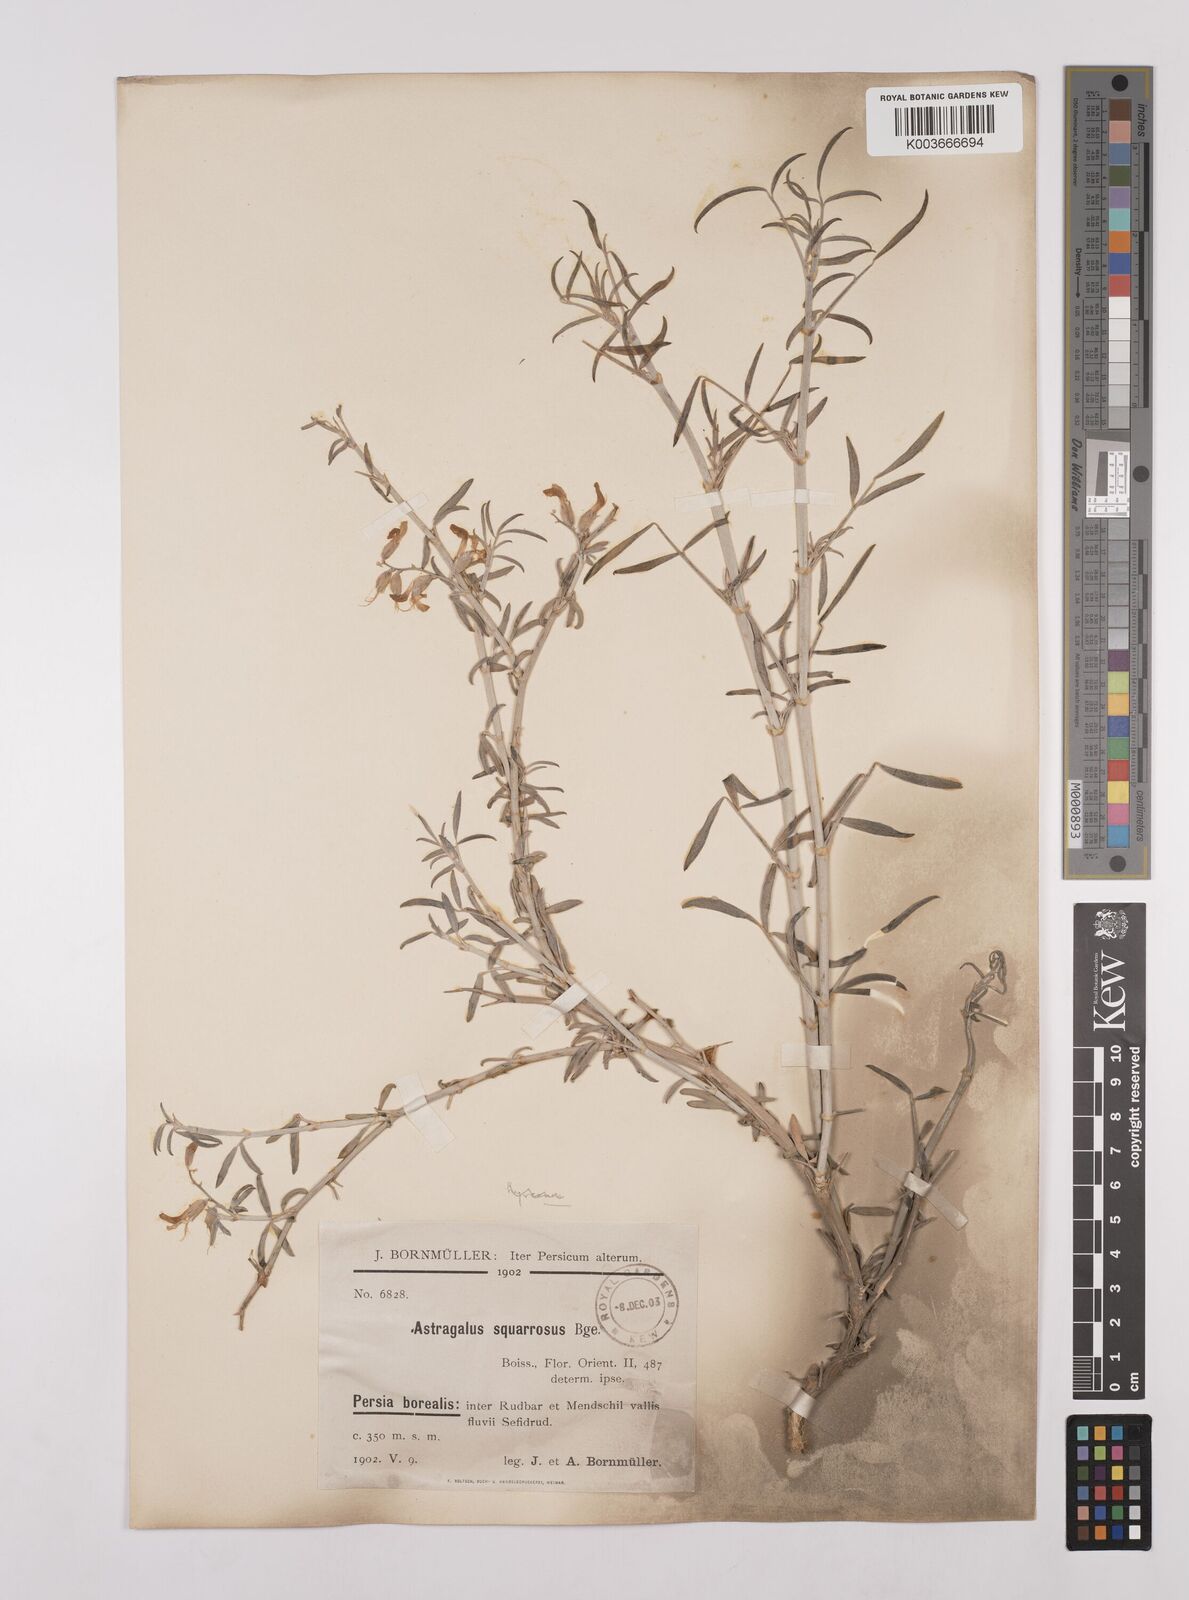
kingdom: Plantae
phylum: Tracheophyta
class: Magnoliopsida
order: Fabales
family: Fabaceae
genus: Astragalus
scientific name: Astragalus macrobotrys
